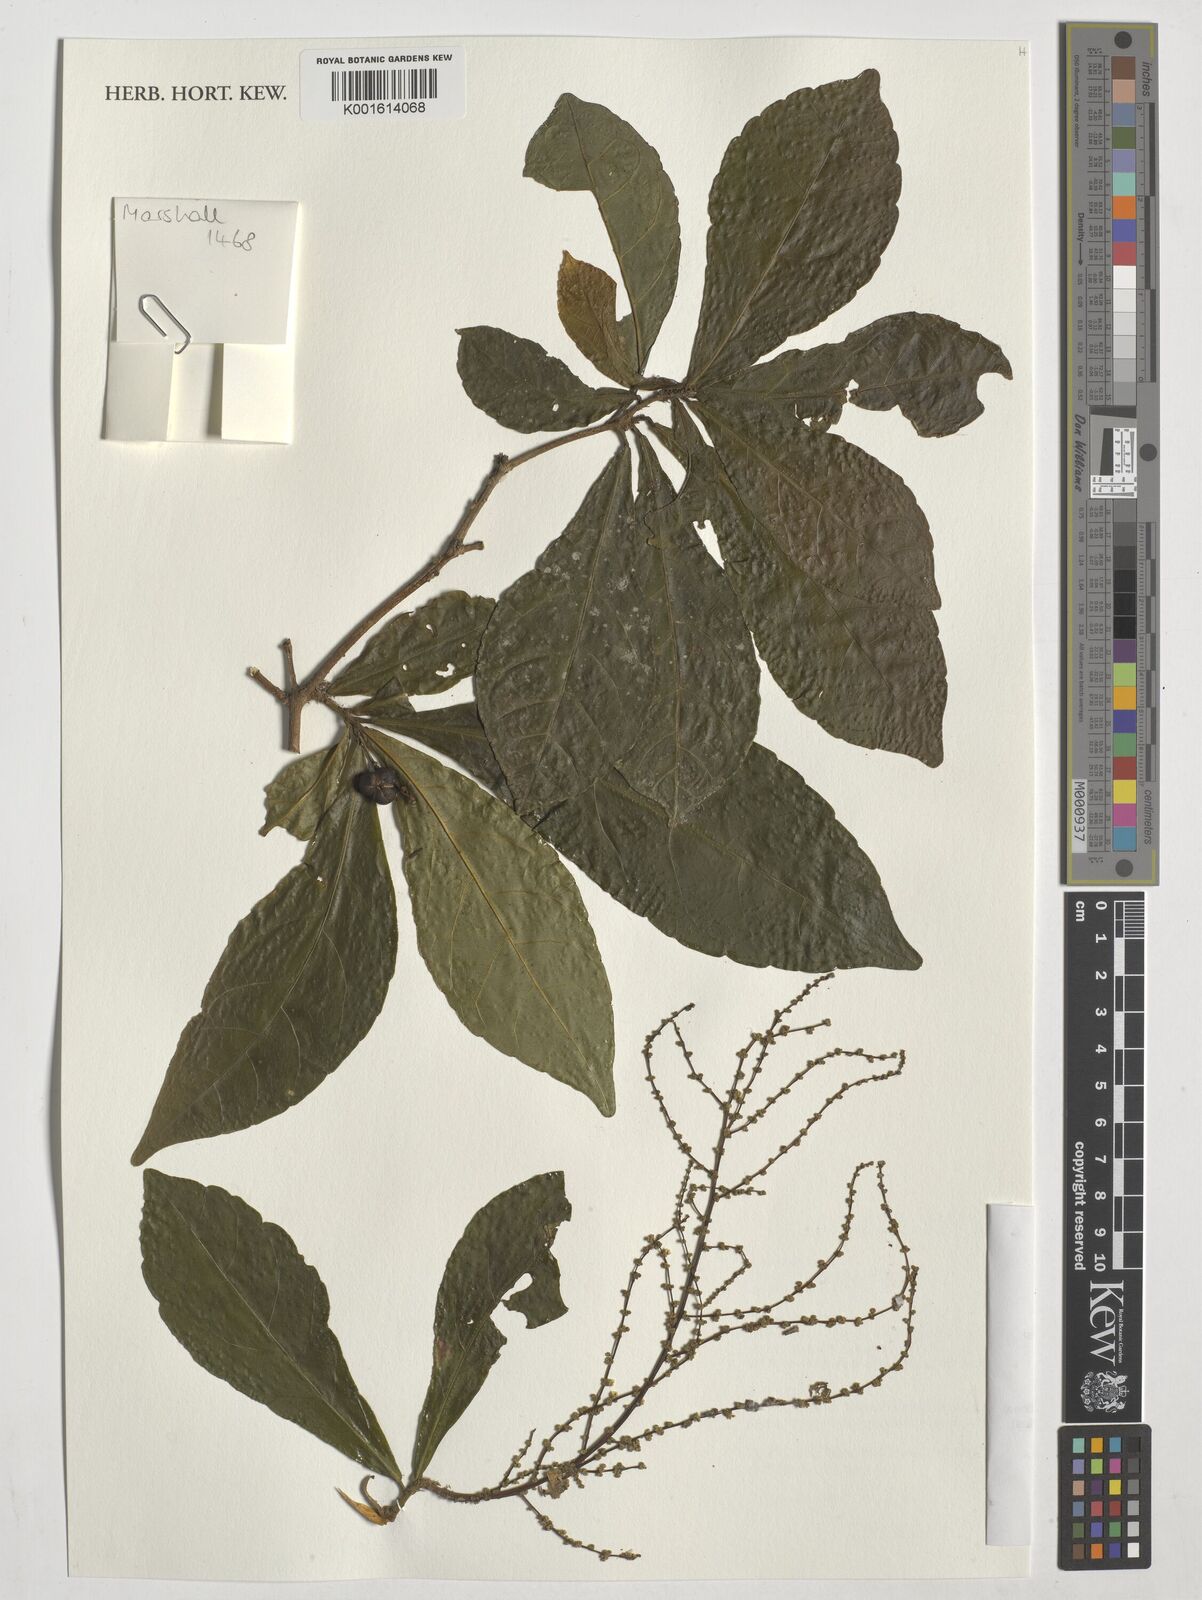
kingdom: Plantae
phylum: Tracheophyta
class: Magnoliopsida
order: Malpighiales
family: Euphorbiaceae
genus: Alchornea
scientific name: Alchornea hirtella
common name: Forest bead-string
